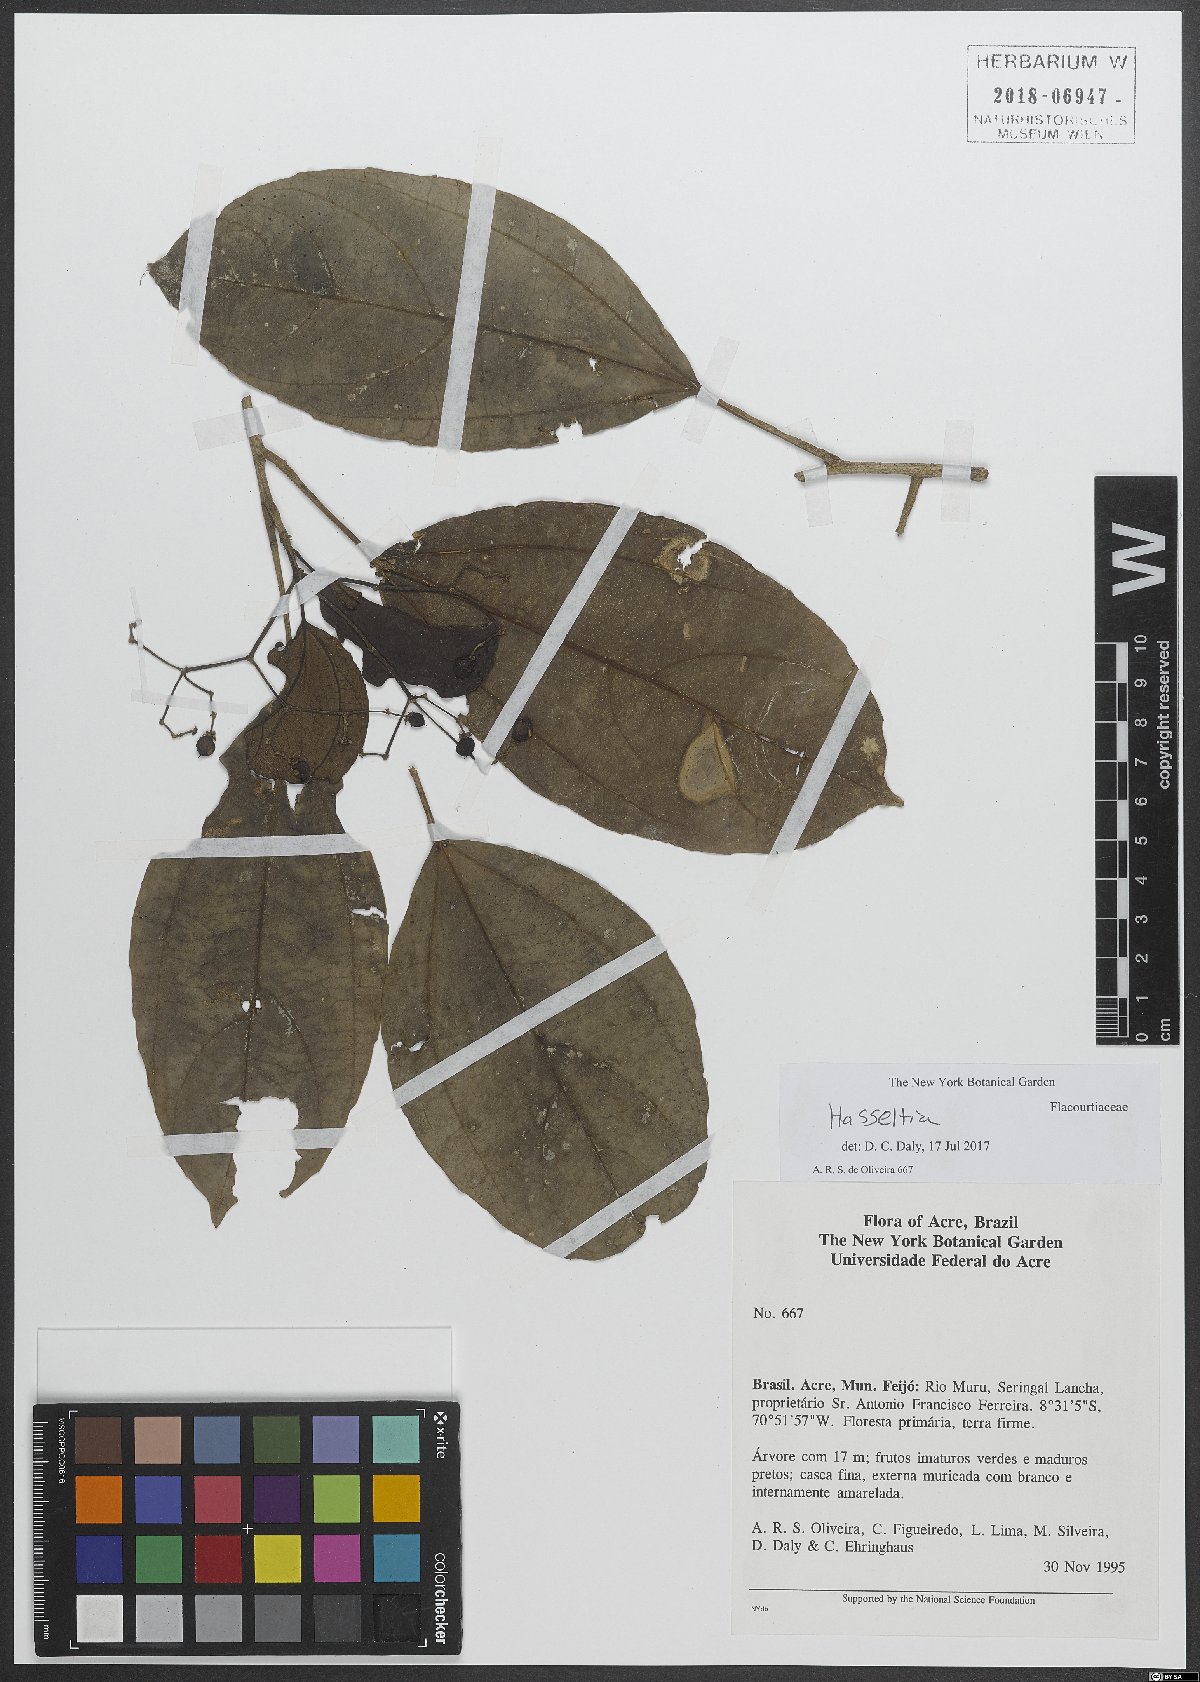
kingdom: Plantae
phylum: Tracheophyta
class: Magnoliopsida
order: Malpighiales
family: Salicaceae
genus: Hasseltia
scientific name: Hasseltia
